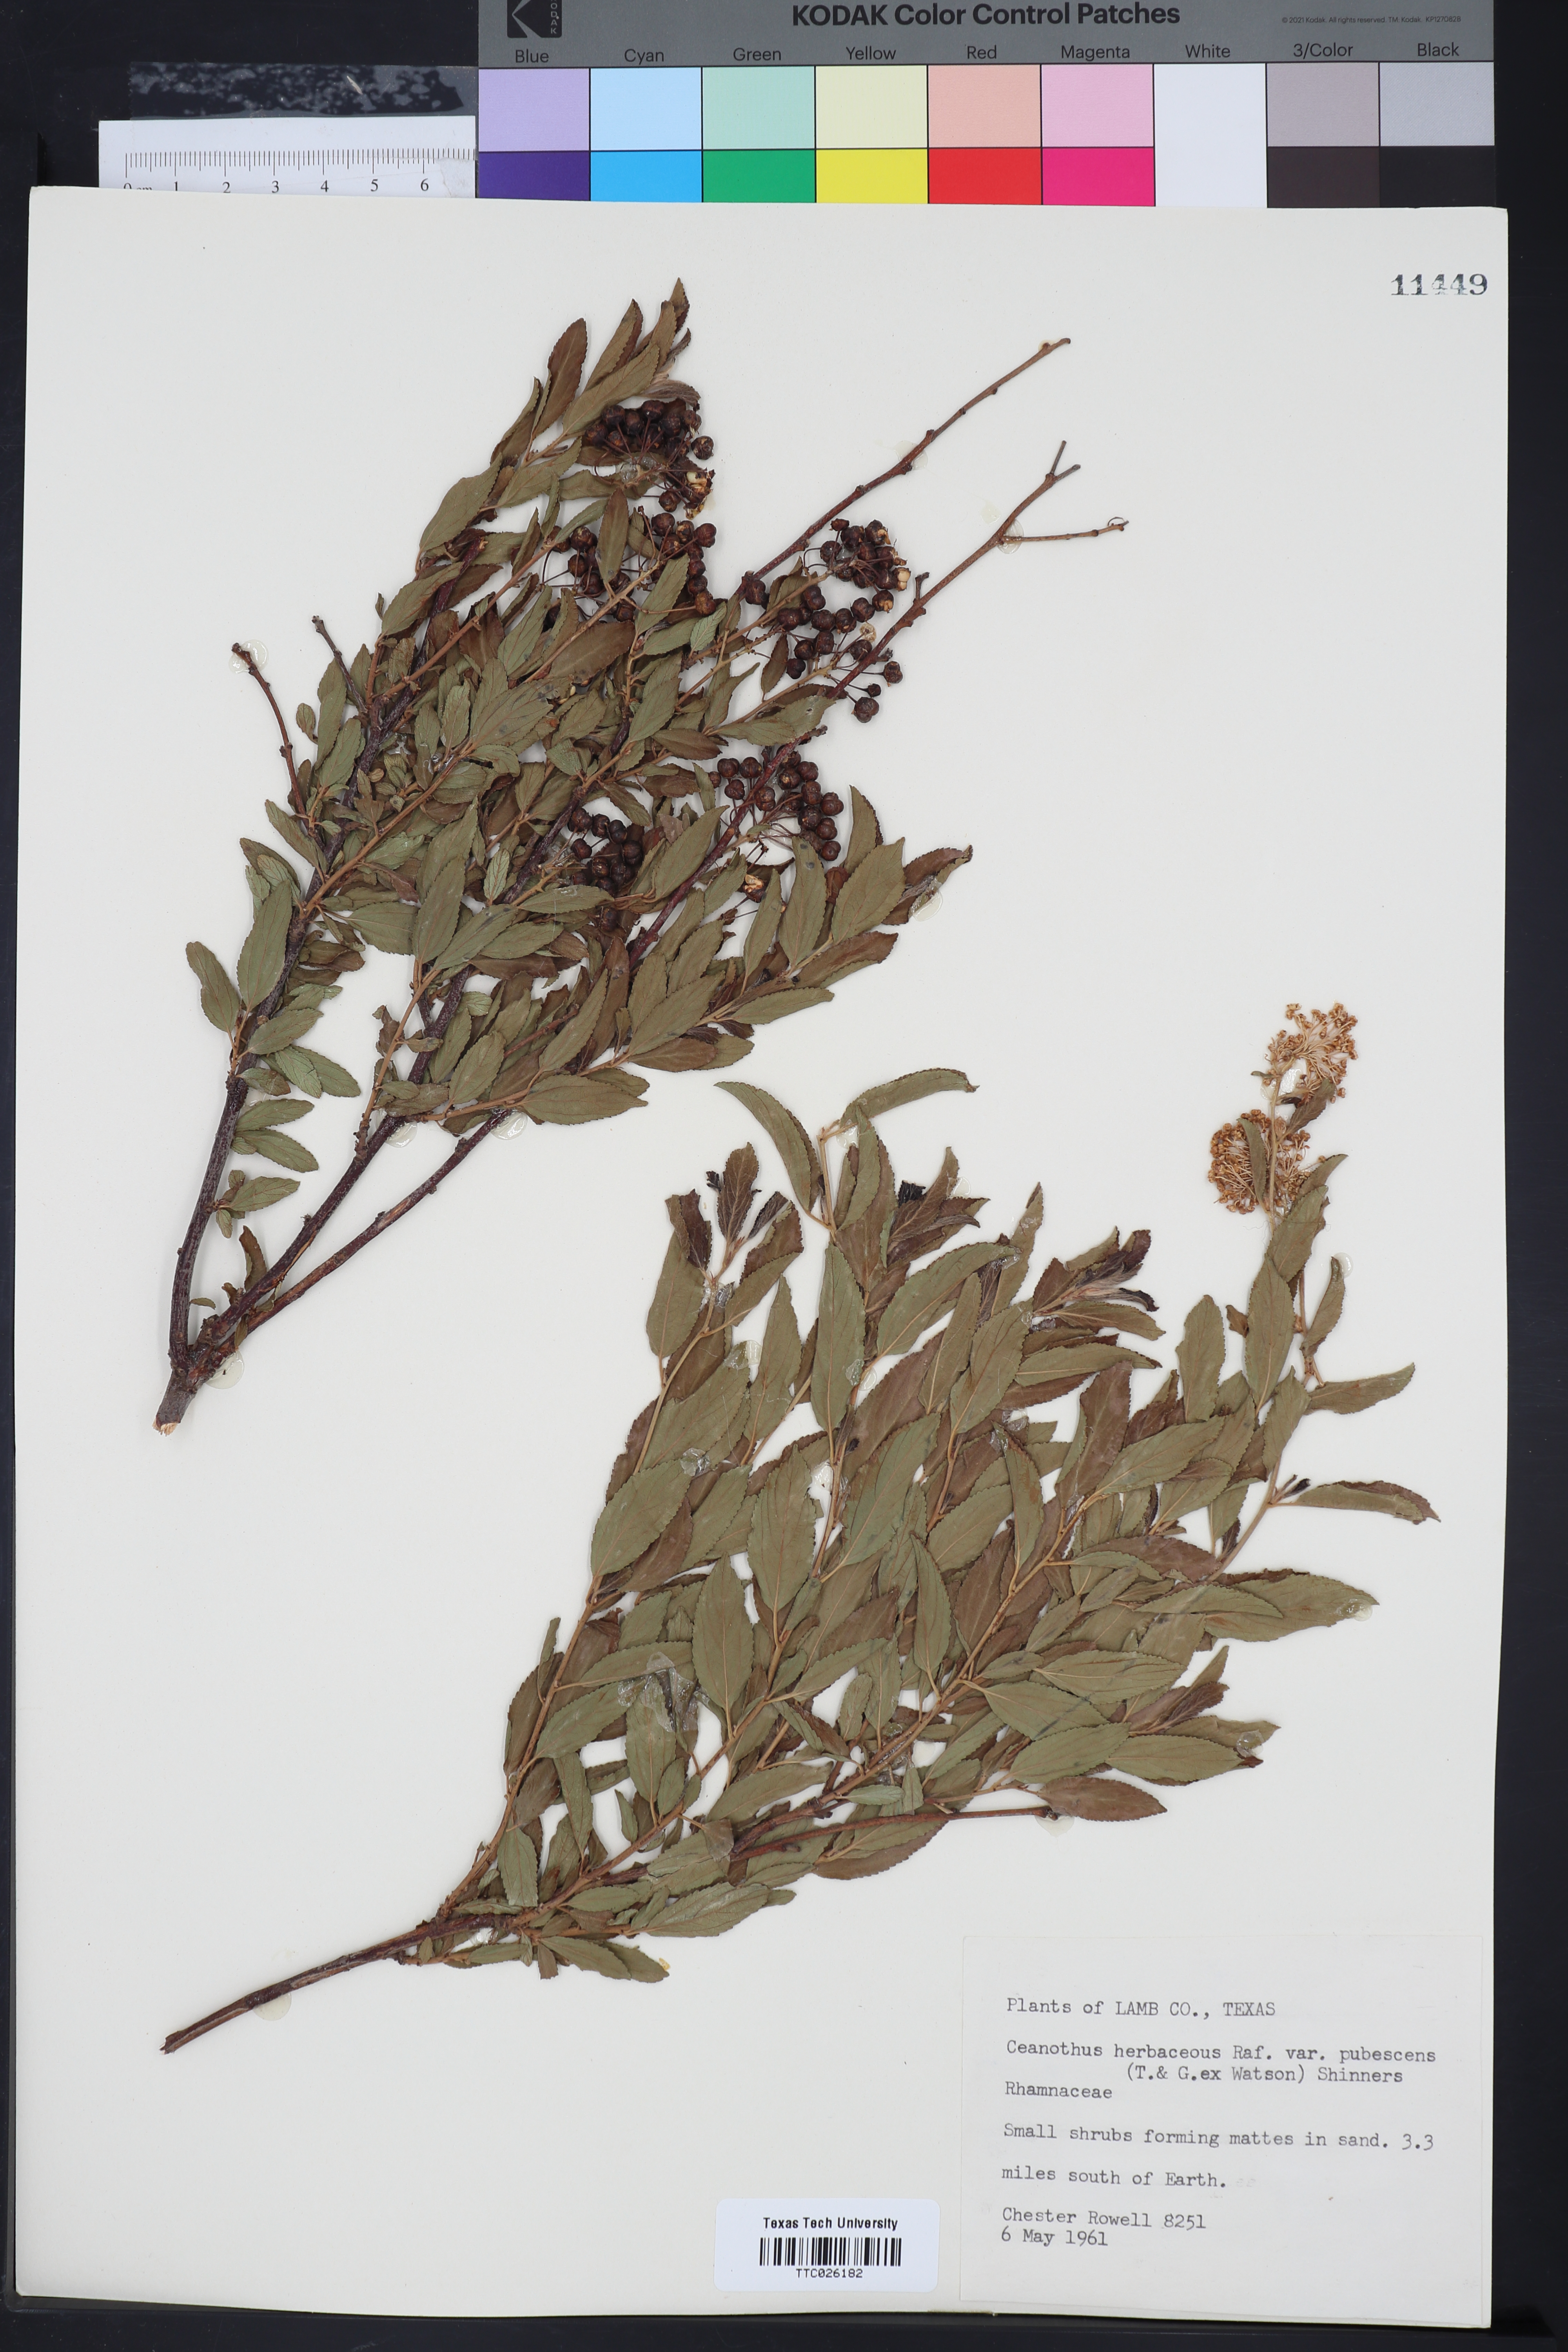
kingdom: Plantae
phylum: Tracheophyta
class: Magnoliopsida
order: Malpighiales
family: Euphorbiaceae
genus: Euphorbia
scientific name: Euphorbia albomarginata
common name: Whitemargin sandmat
